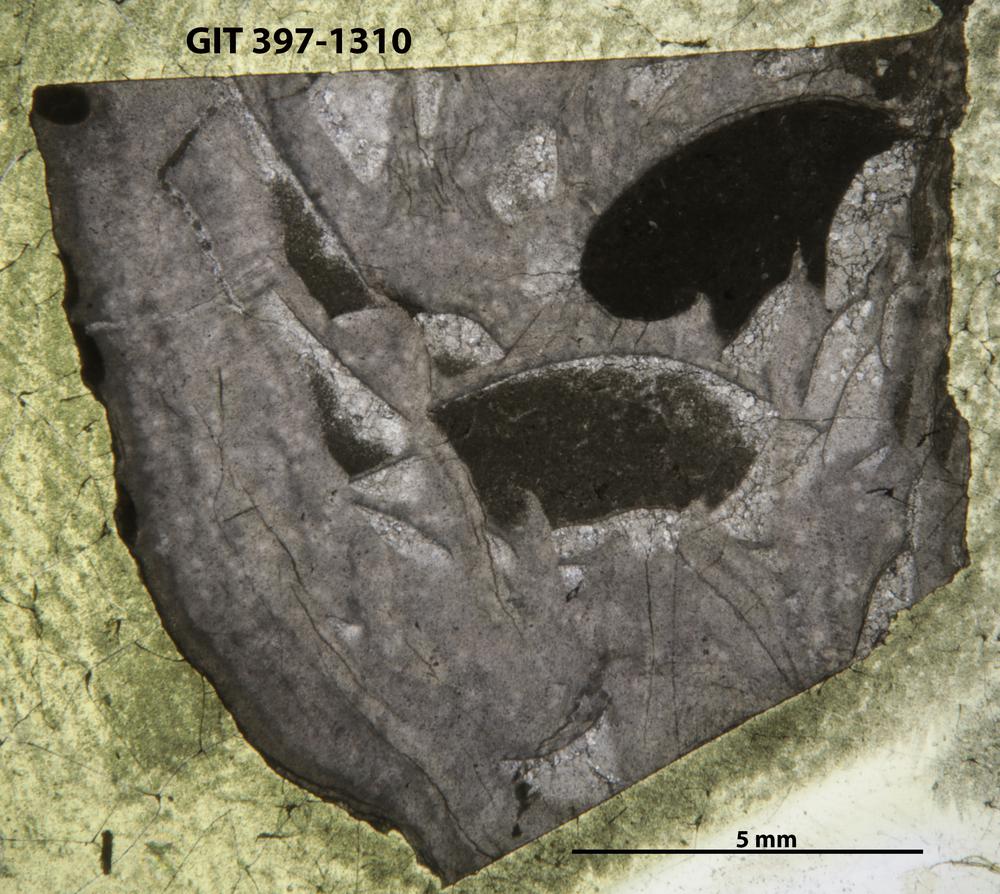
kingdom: Animalia
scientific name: Animalia
